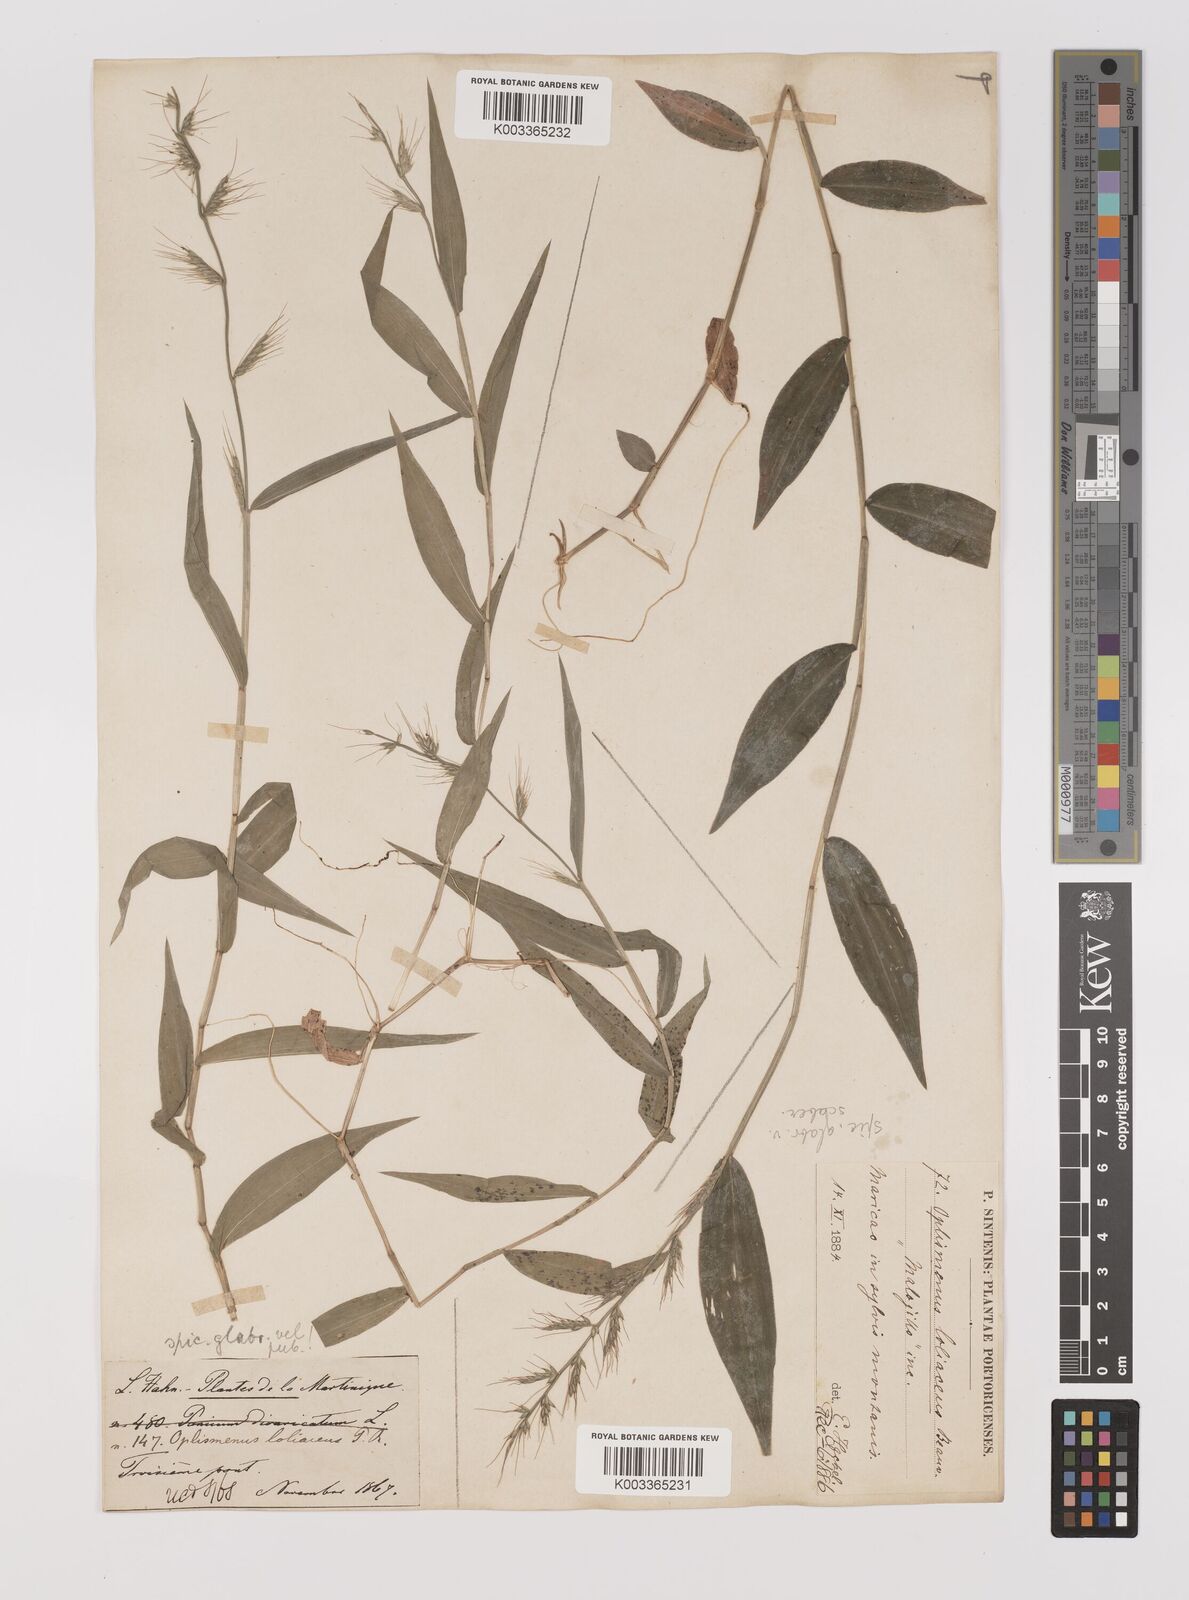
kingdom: Plantae
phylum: Tracheophyta
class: Liliopsida
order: Poales
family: Poaceae
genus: Oplismenus
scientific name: Oplismenus hirtellus
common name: Basketgrass
